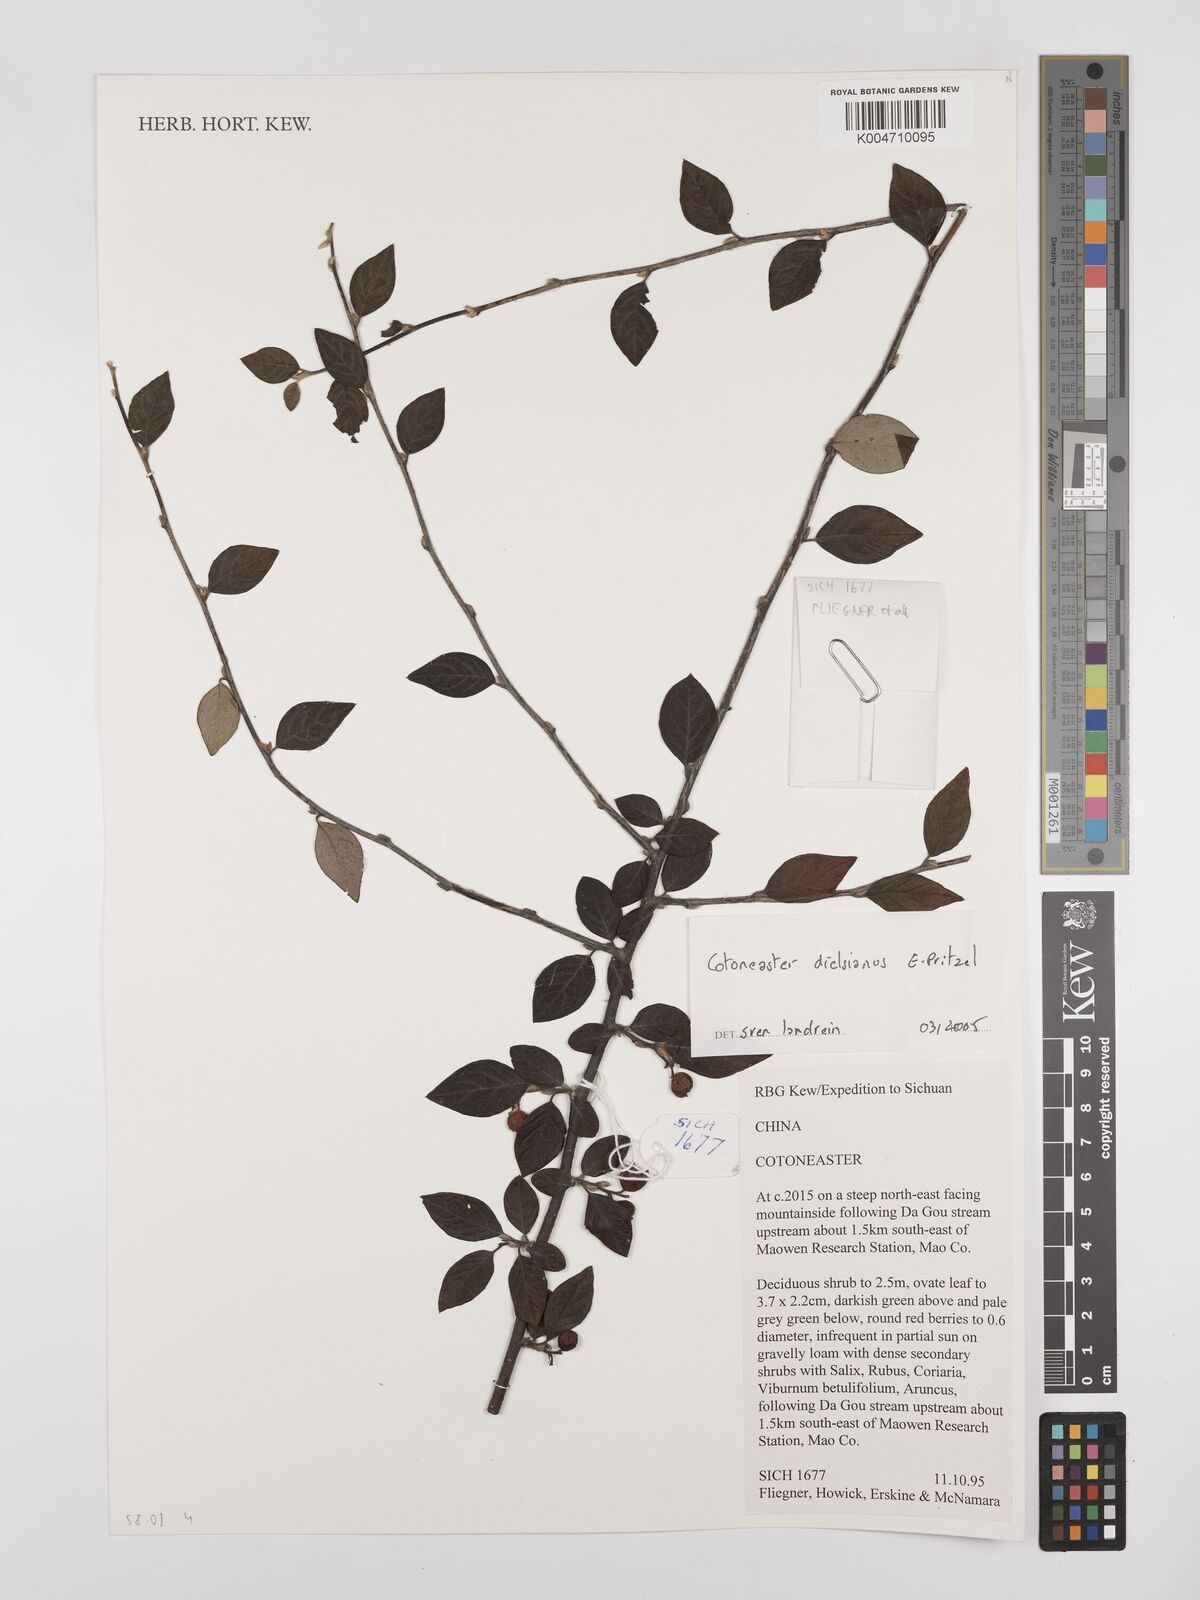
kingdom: Plantae
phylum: Tracheophyta
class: Magnoliopsida
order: Rosales
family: Rosaceae
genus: Cotoneaster
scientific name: Cotoneaster dielsianus
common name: Diels's cotoneaster
